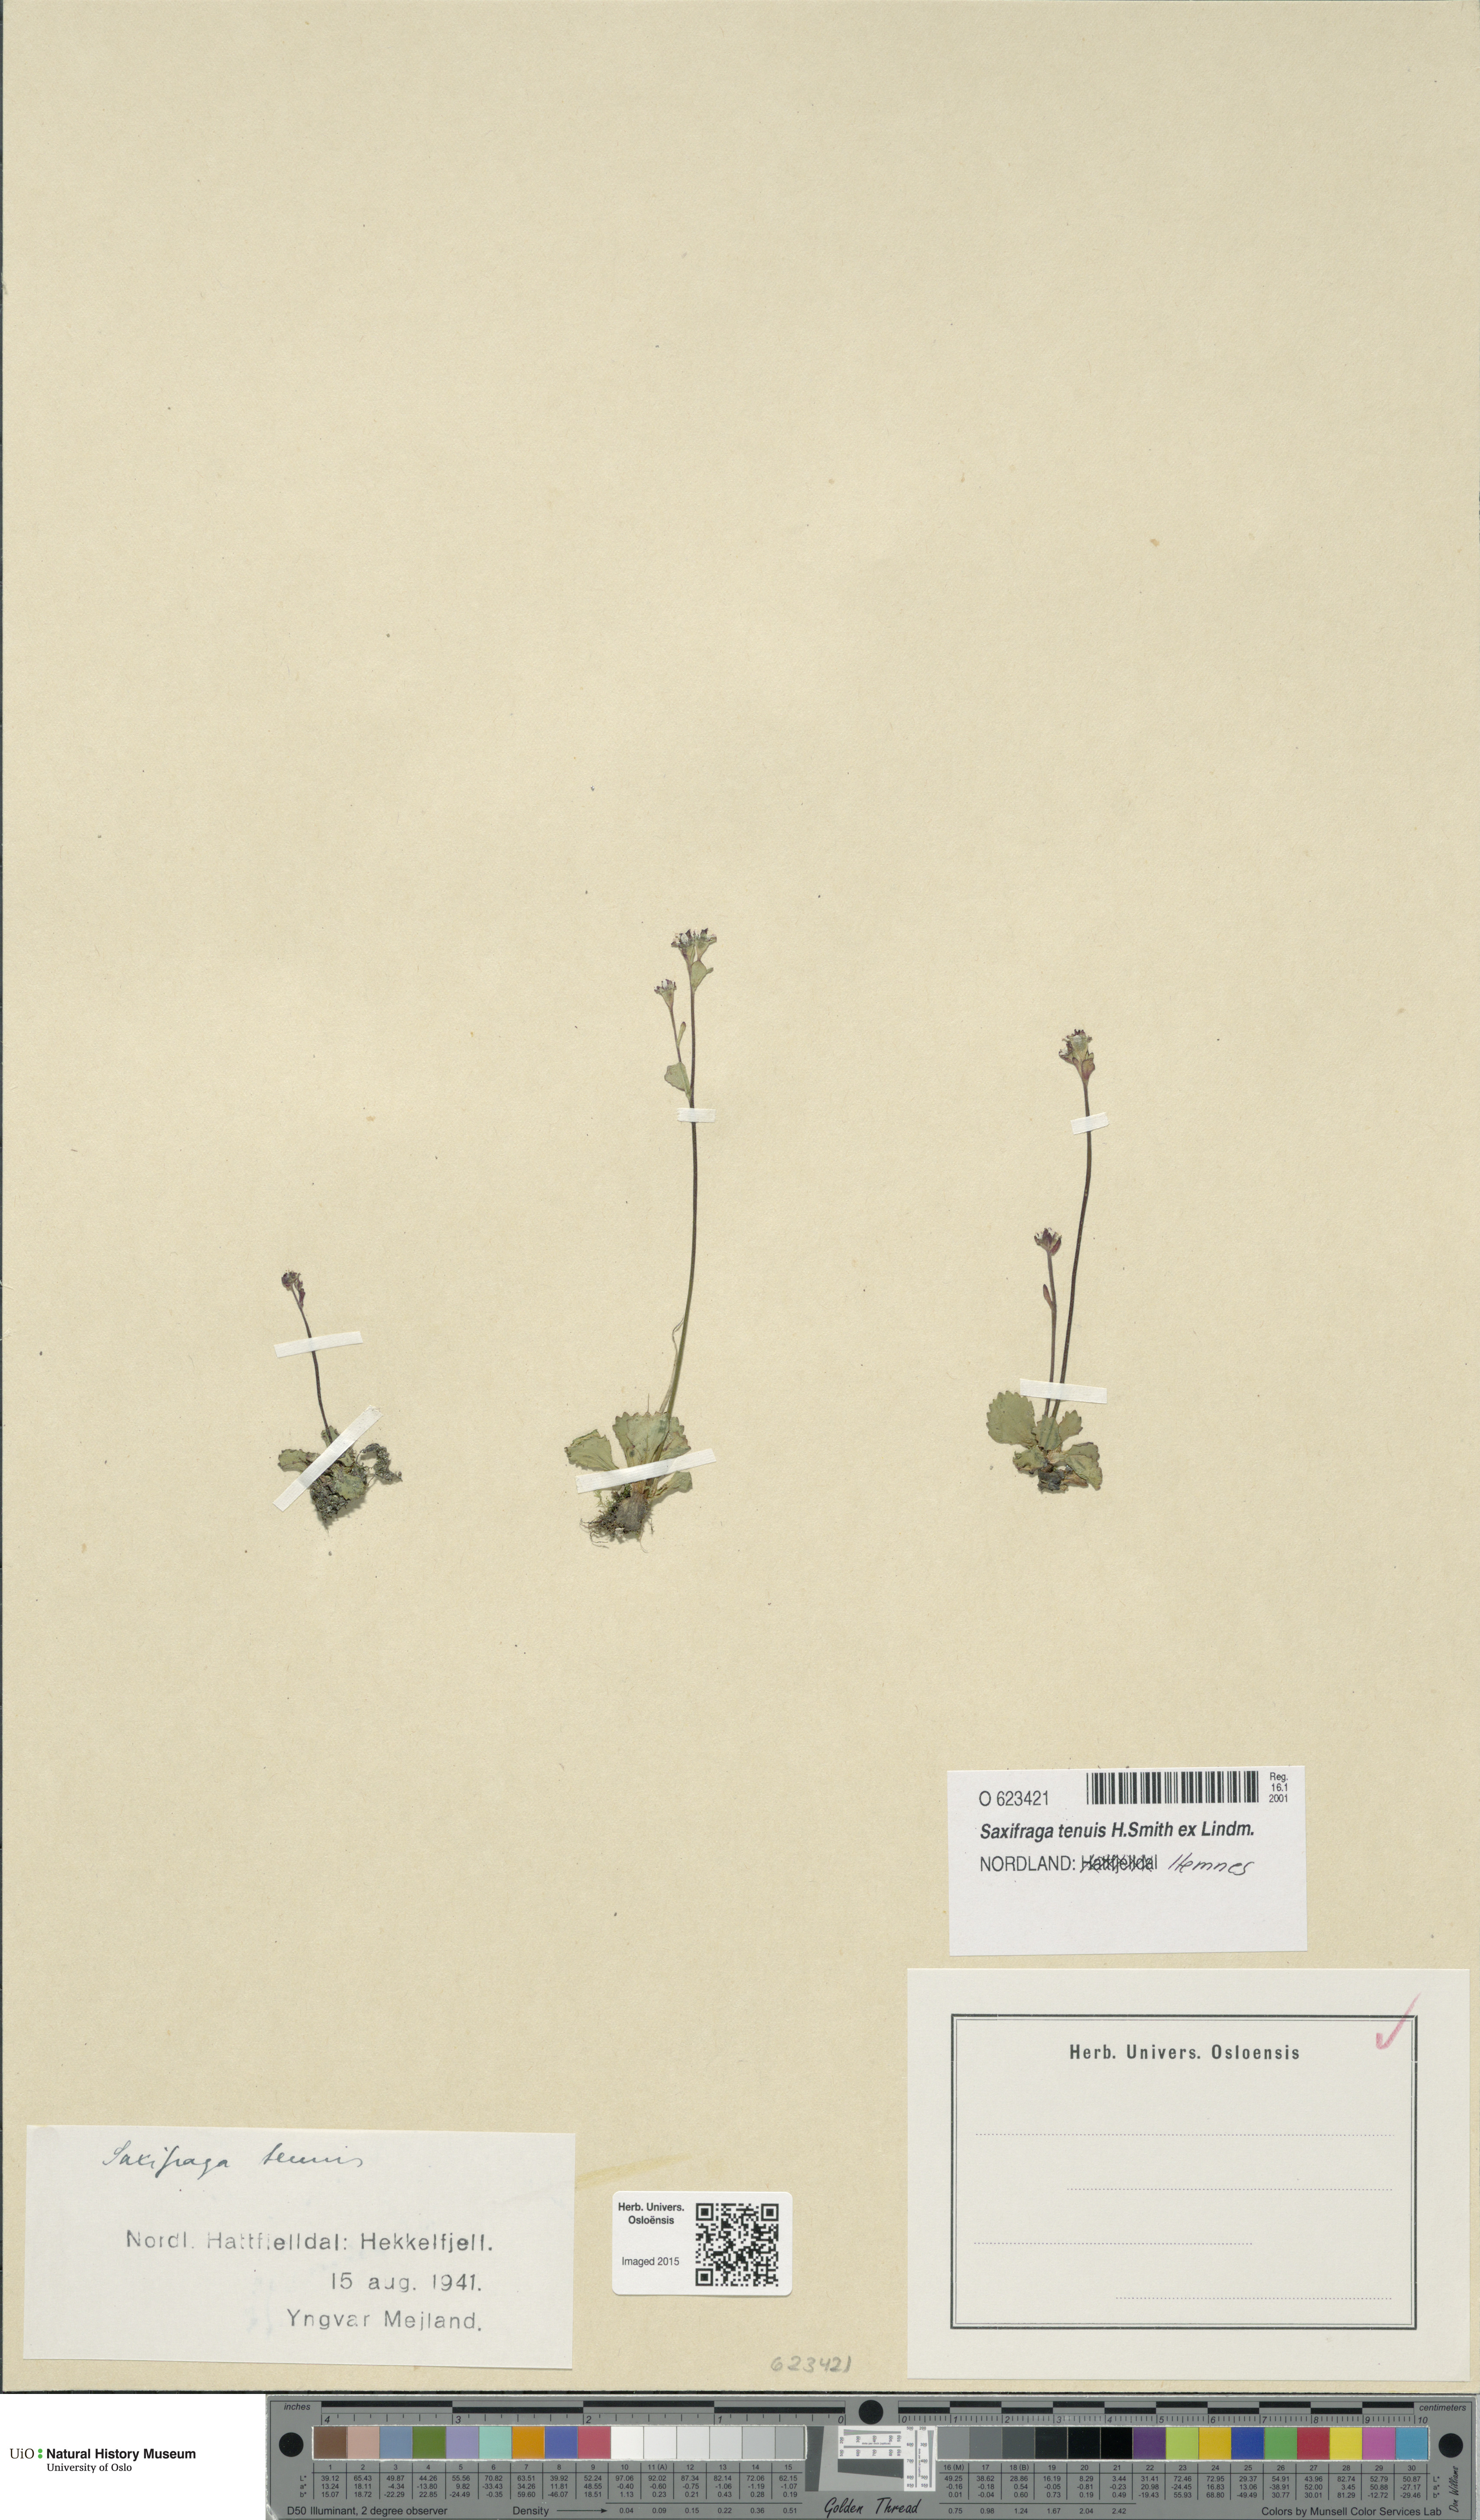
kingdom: Plantae
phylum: Tracheophyta
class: Magnoliopsida
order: Saxifragales
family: Saxifragaceae
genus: Micranthes
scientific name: Micranthes tenuis
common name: Ottertail pass saxifrage
